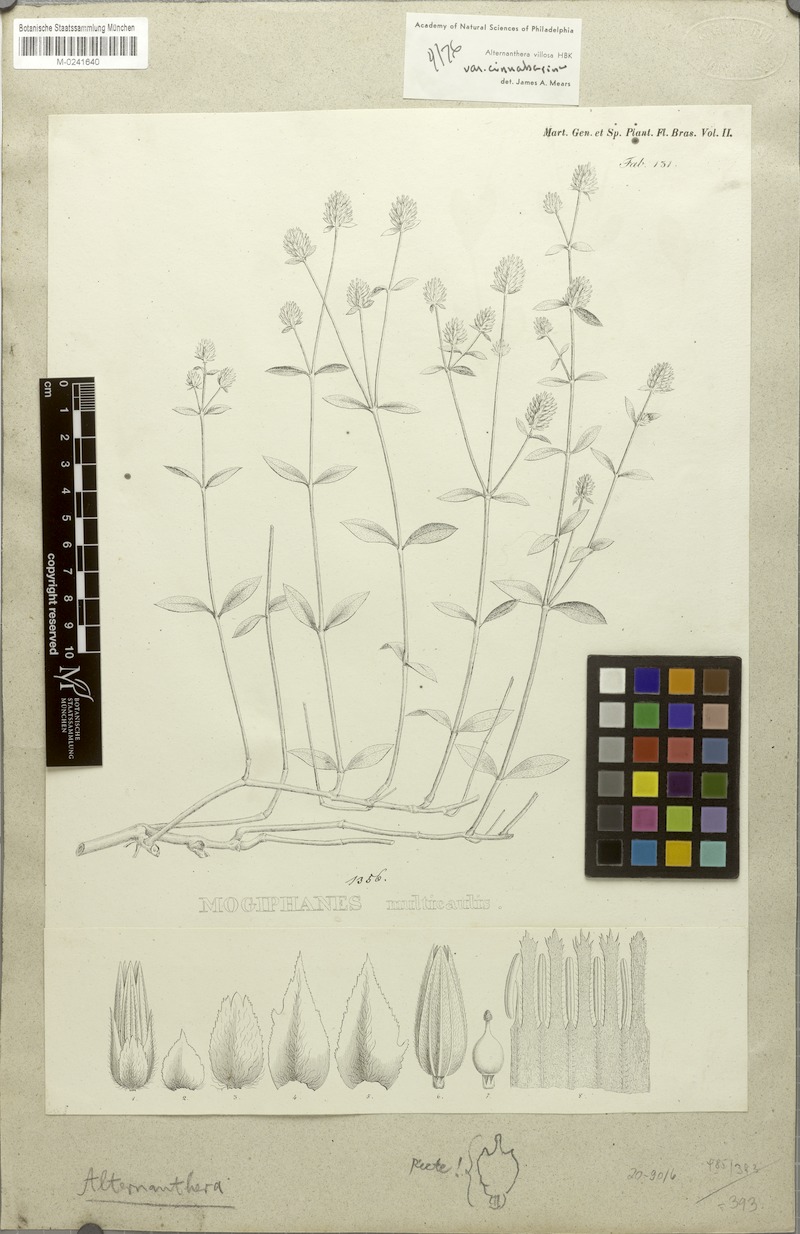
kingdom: Plantae
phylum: Tracheophyta
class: Magnoliopsida
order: Caryophyllales
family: Amaranthaceae
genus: Alternanthera
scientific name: Alternanthera multicaulis
